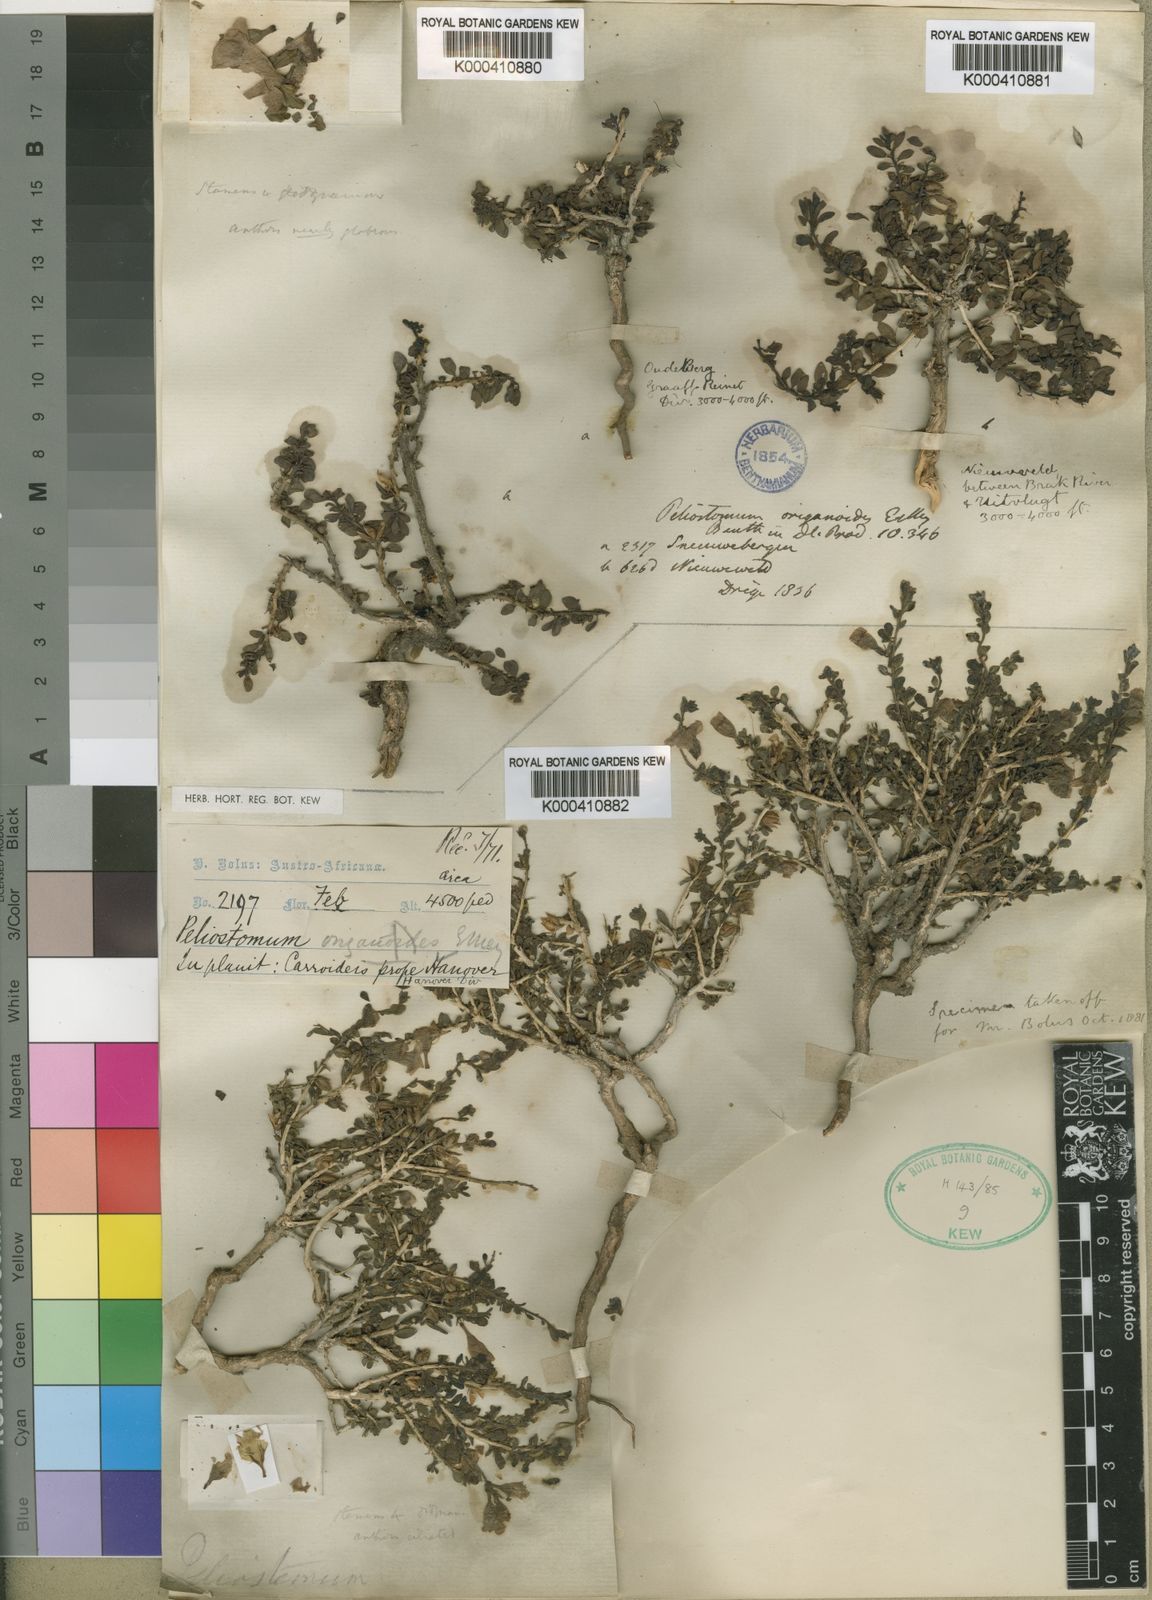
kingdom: Plantae
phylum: Tracheophyta
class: Magnoliopsida
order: Lamiales
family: Scrophulariaceae
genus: Peliostomum
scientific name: Peliostomum origanoides
